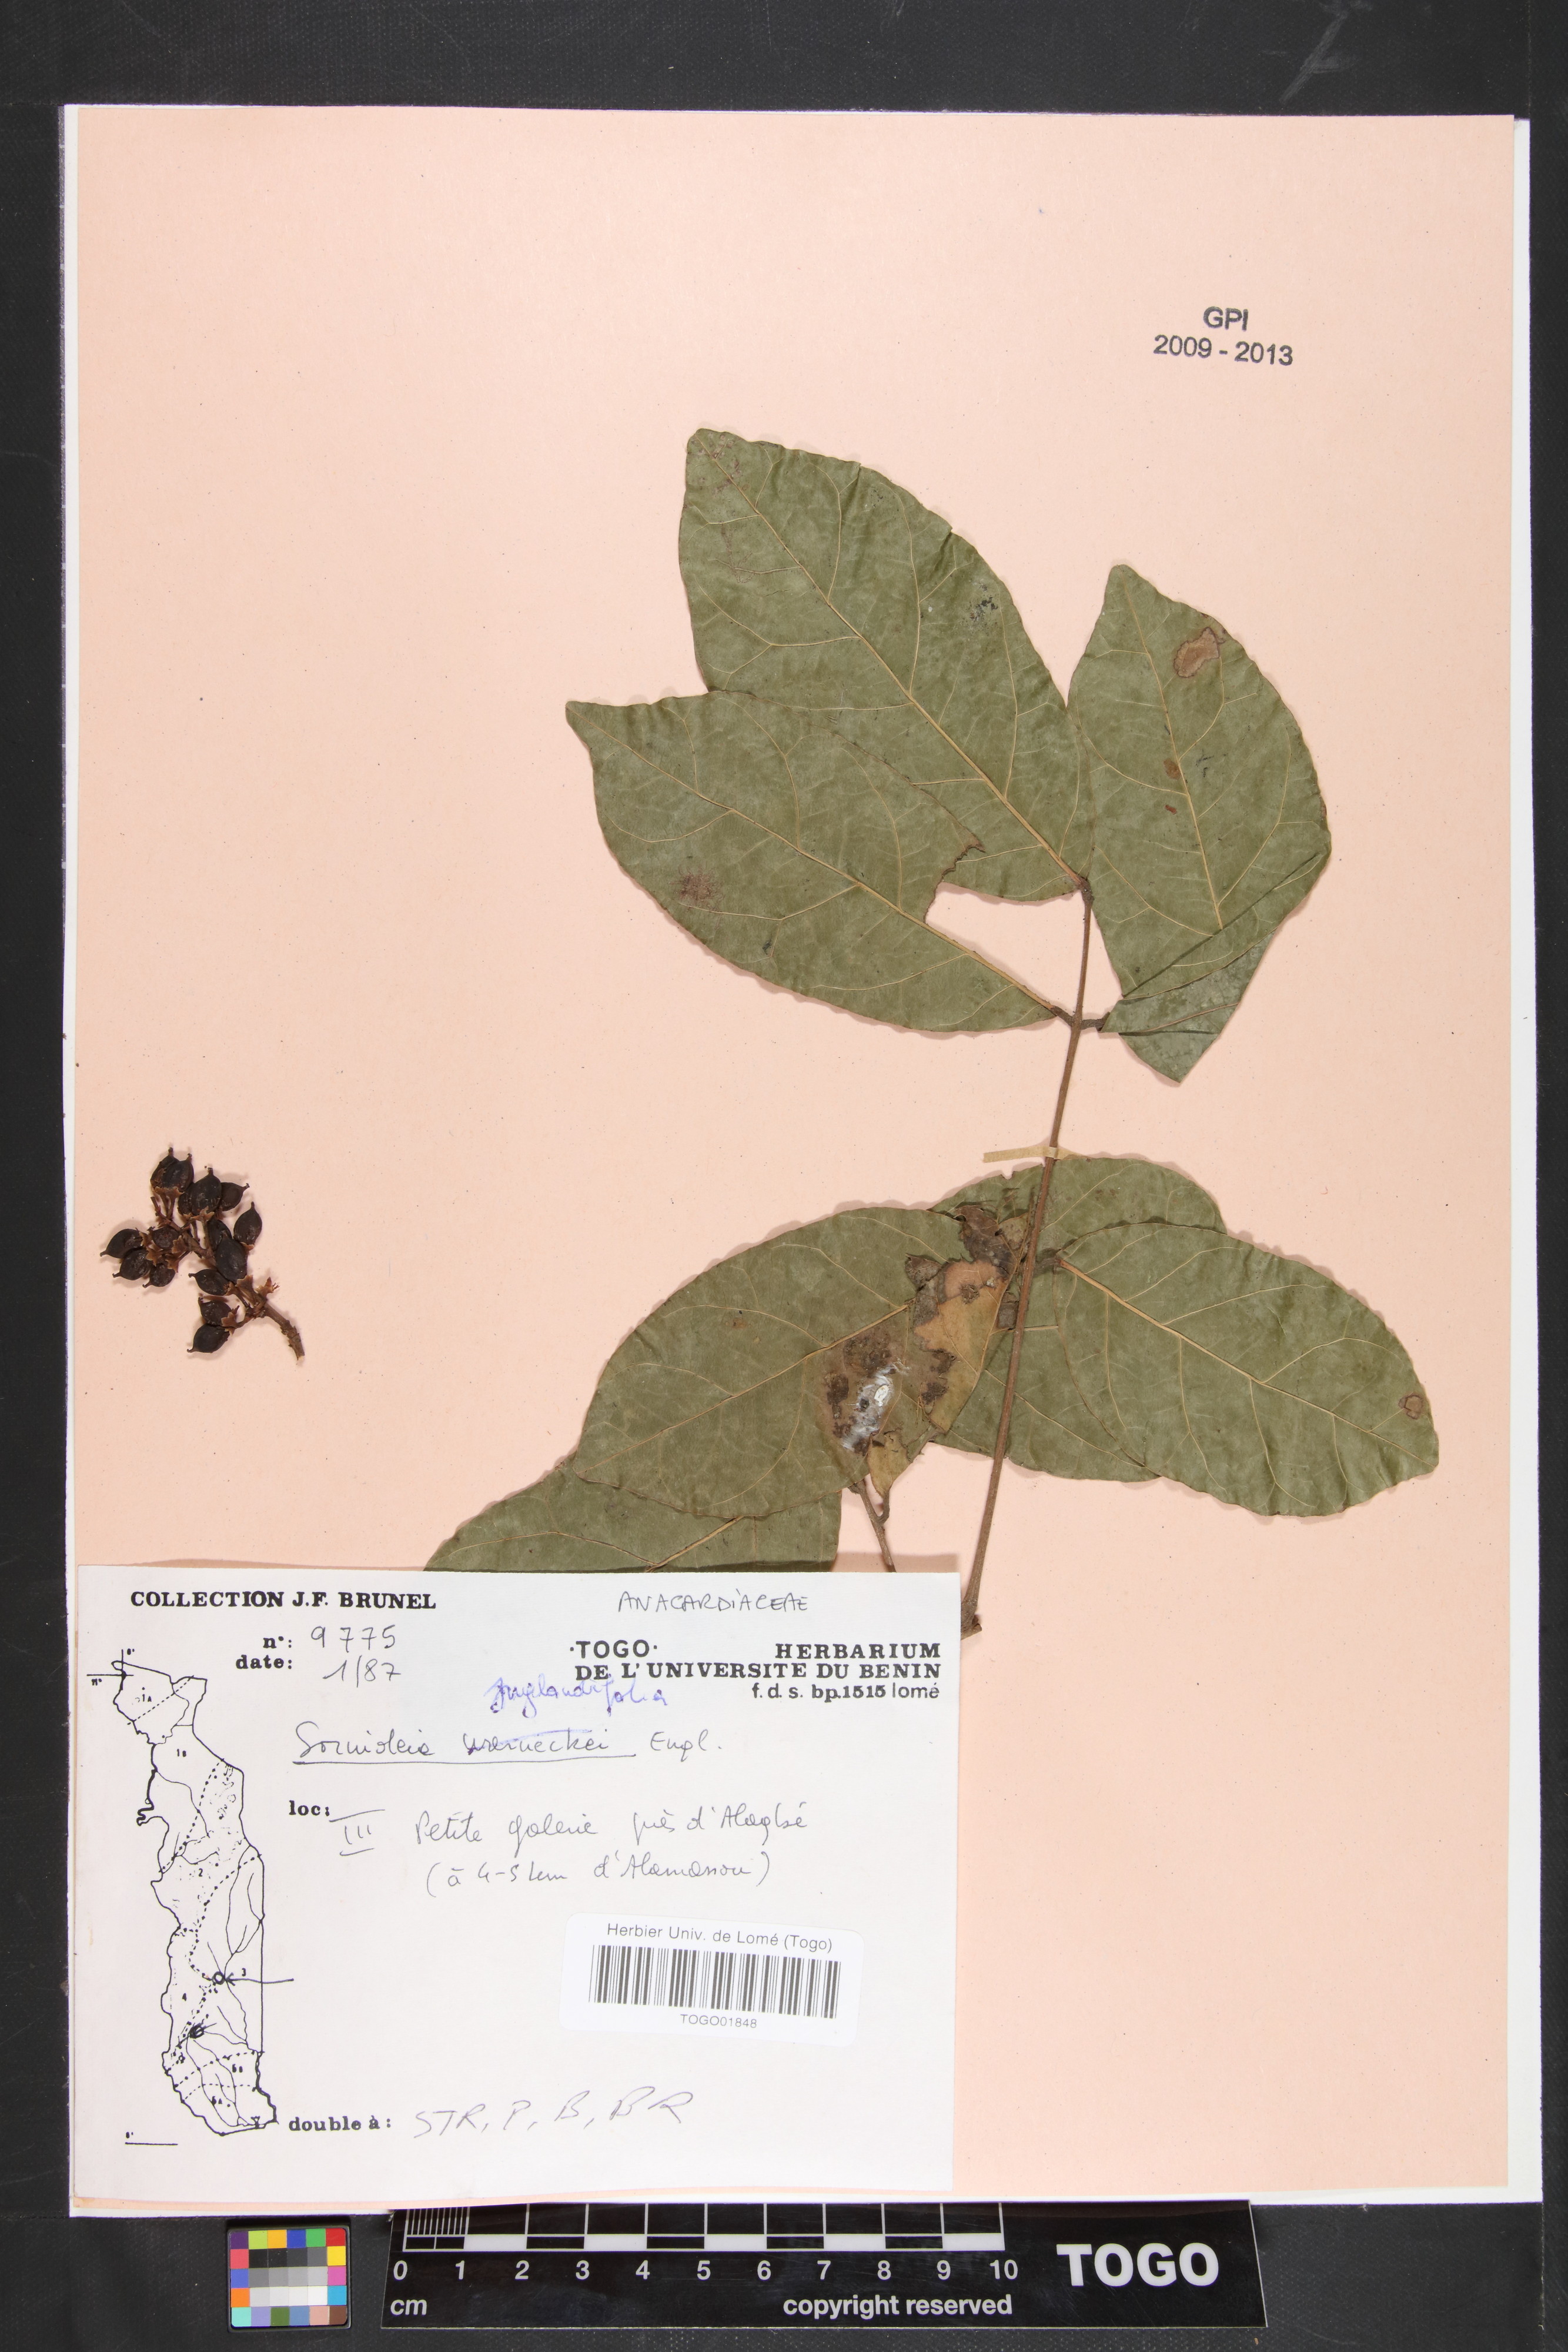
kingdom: Plantae
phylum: Tracheophyta
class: Magnoliopsida
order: Sapindales
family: Anacardiaceae
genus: Sorindeia
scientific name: Sorindeia grandifolia
